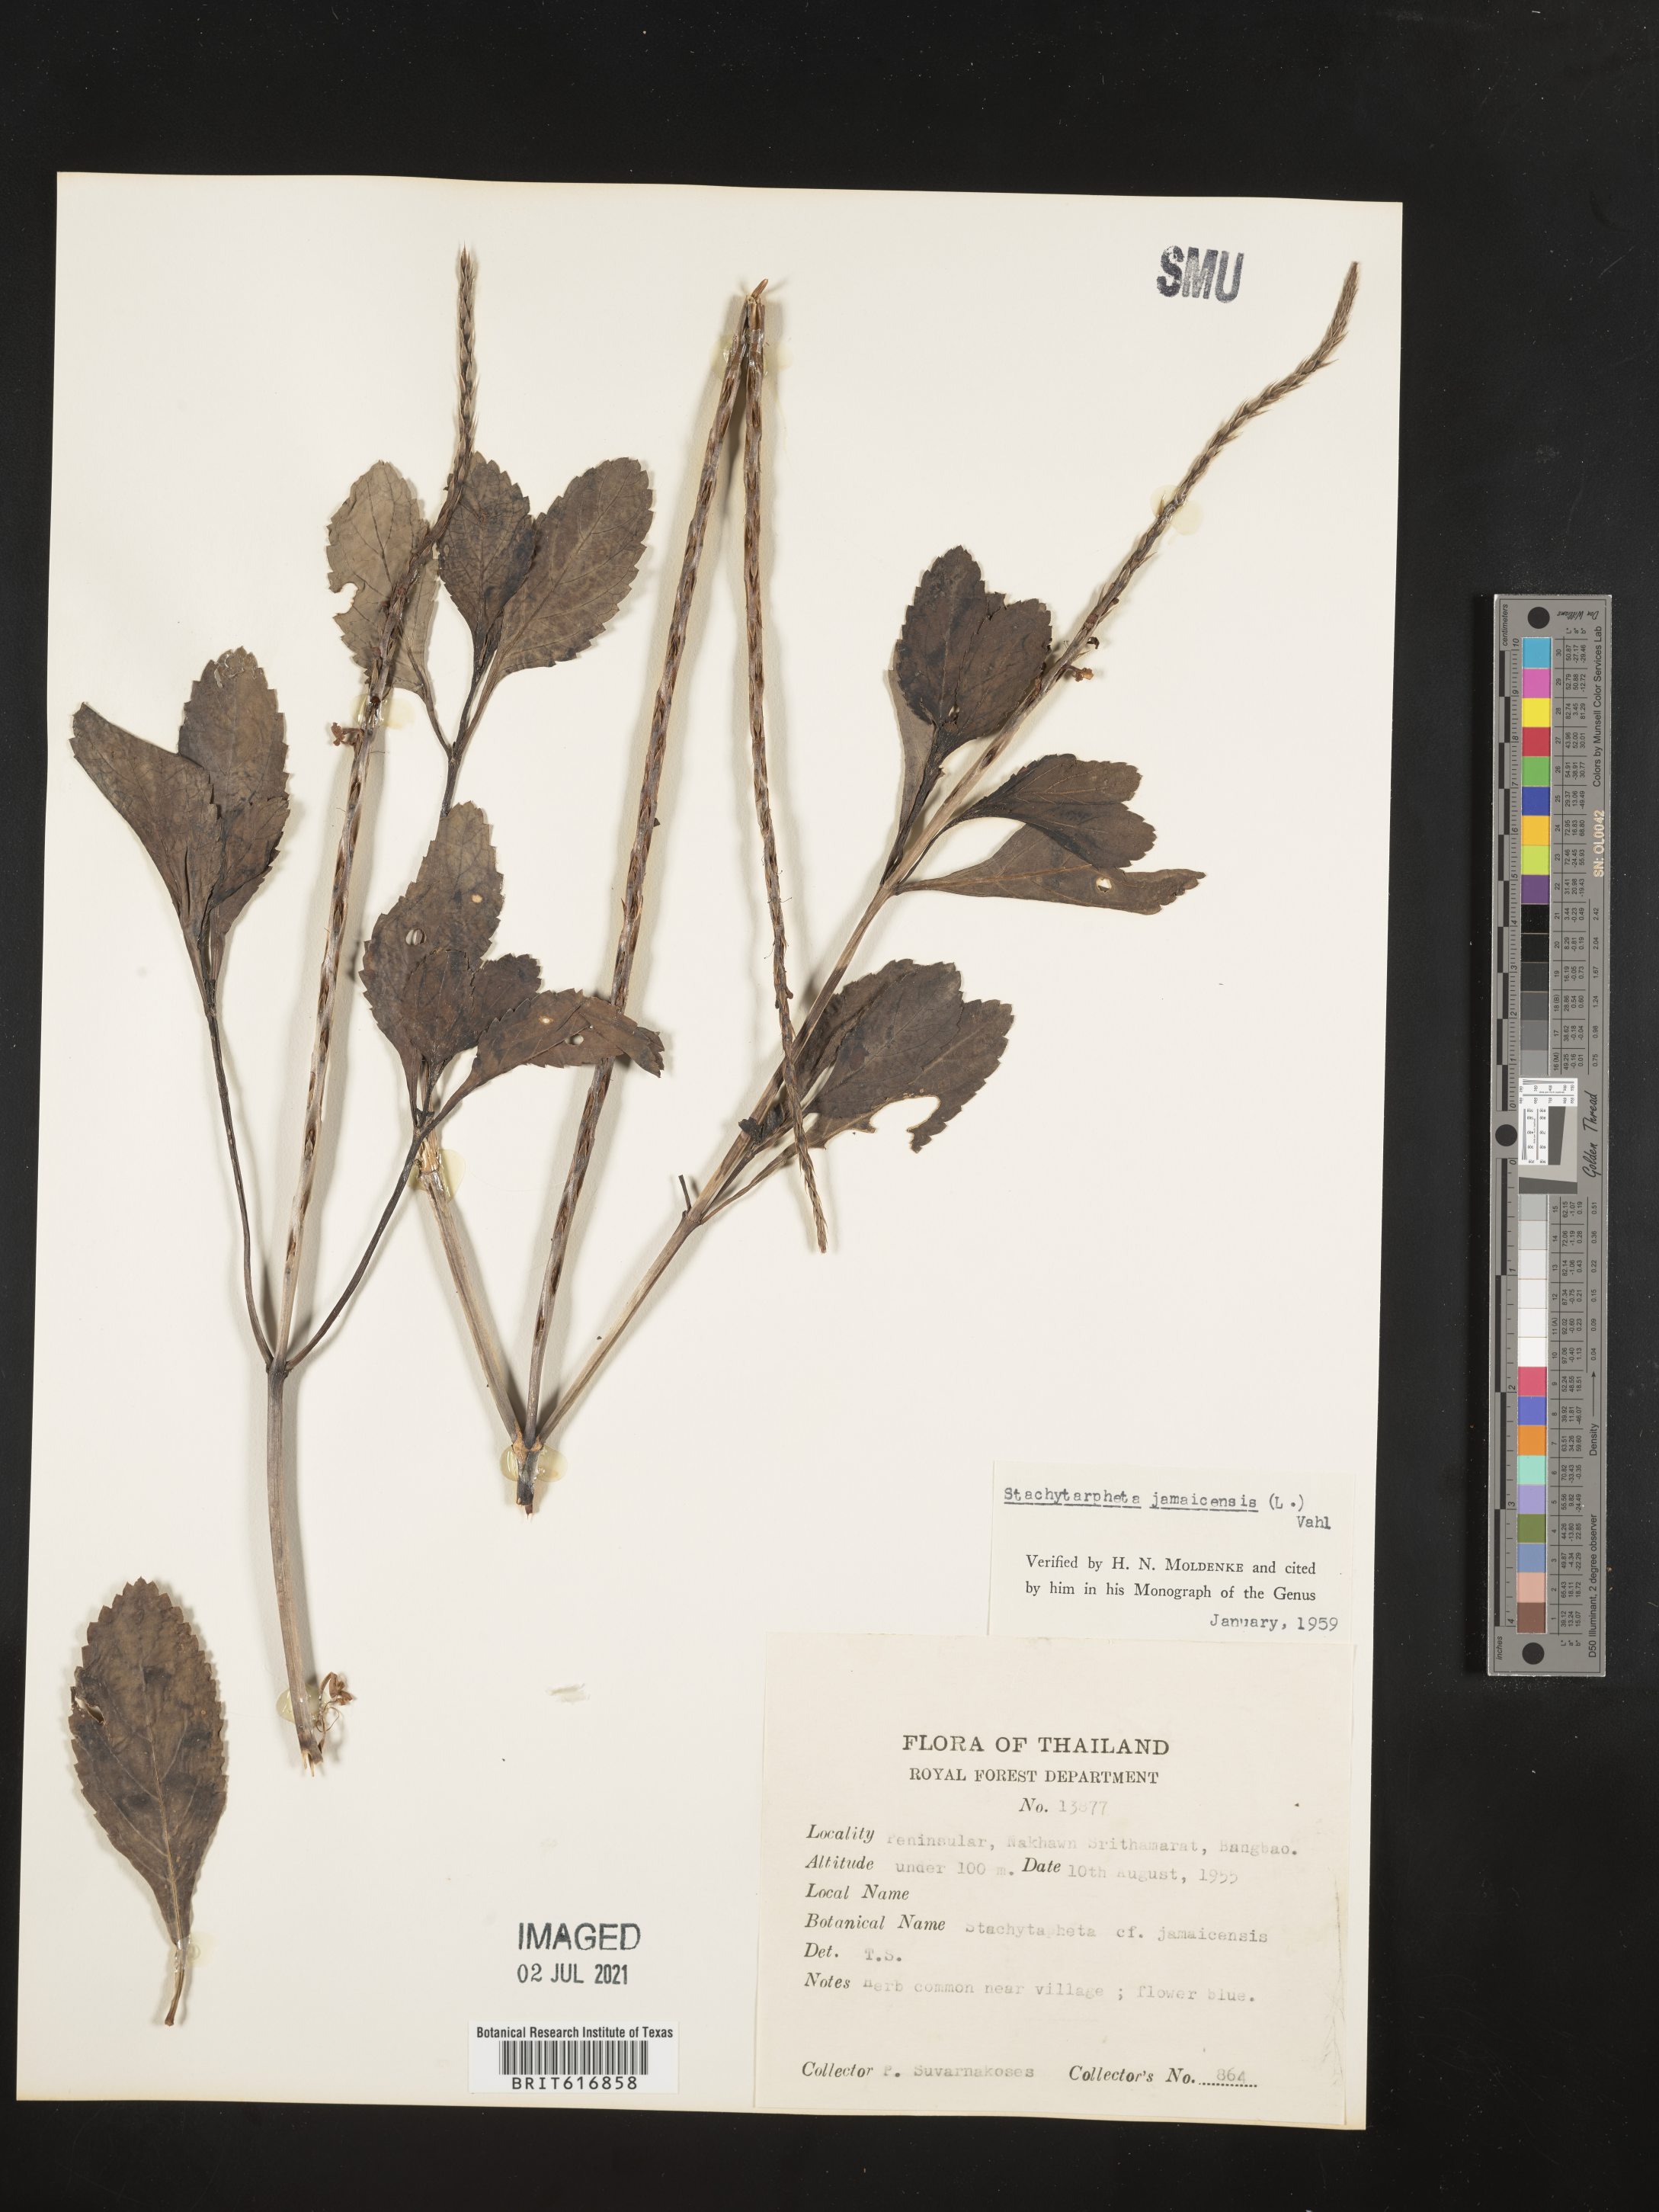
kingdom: Plantae
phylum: Tracheophyta
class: Magnoliopsida
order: Lamiales
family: Verbenaceae
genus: Stachytarpheta
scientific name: Stachytarpheta jamaicensis
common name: Light-blue snakeweed
